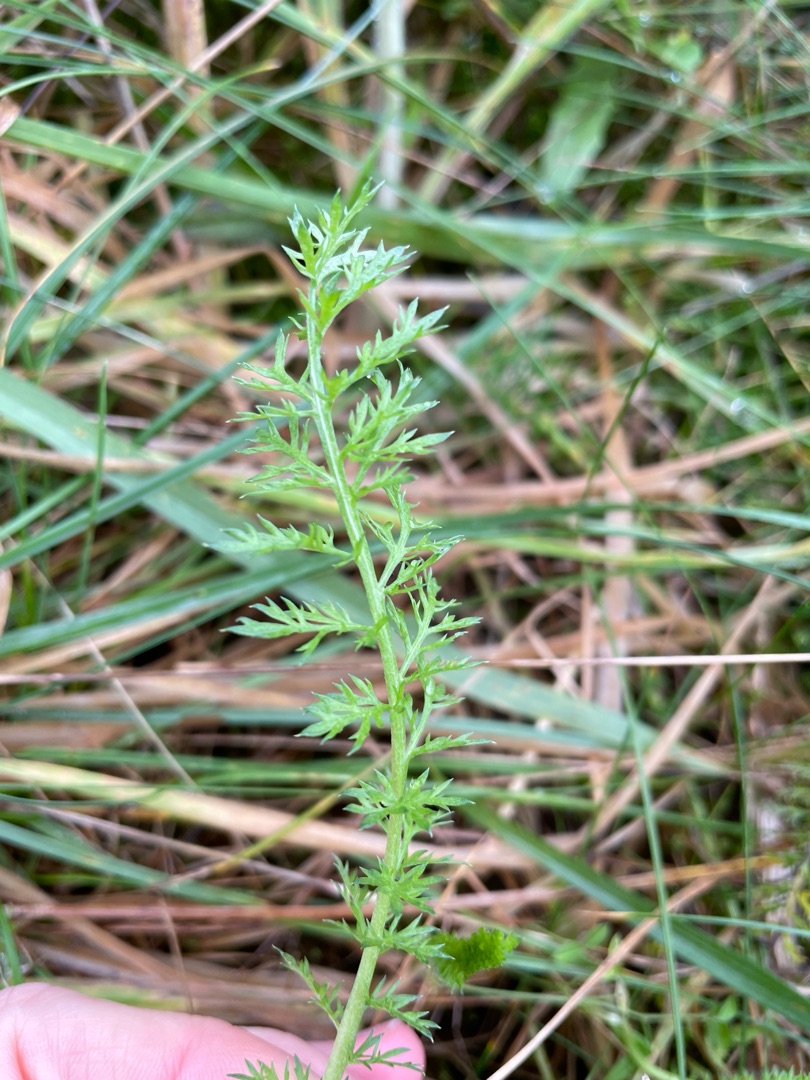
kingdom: Plantae
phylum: Tracheophyta
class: Magnoliopsida
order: Asterales
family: Asteraceae
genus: Achillea
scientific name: Achillea millefolium
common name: Almindelig røllike
